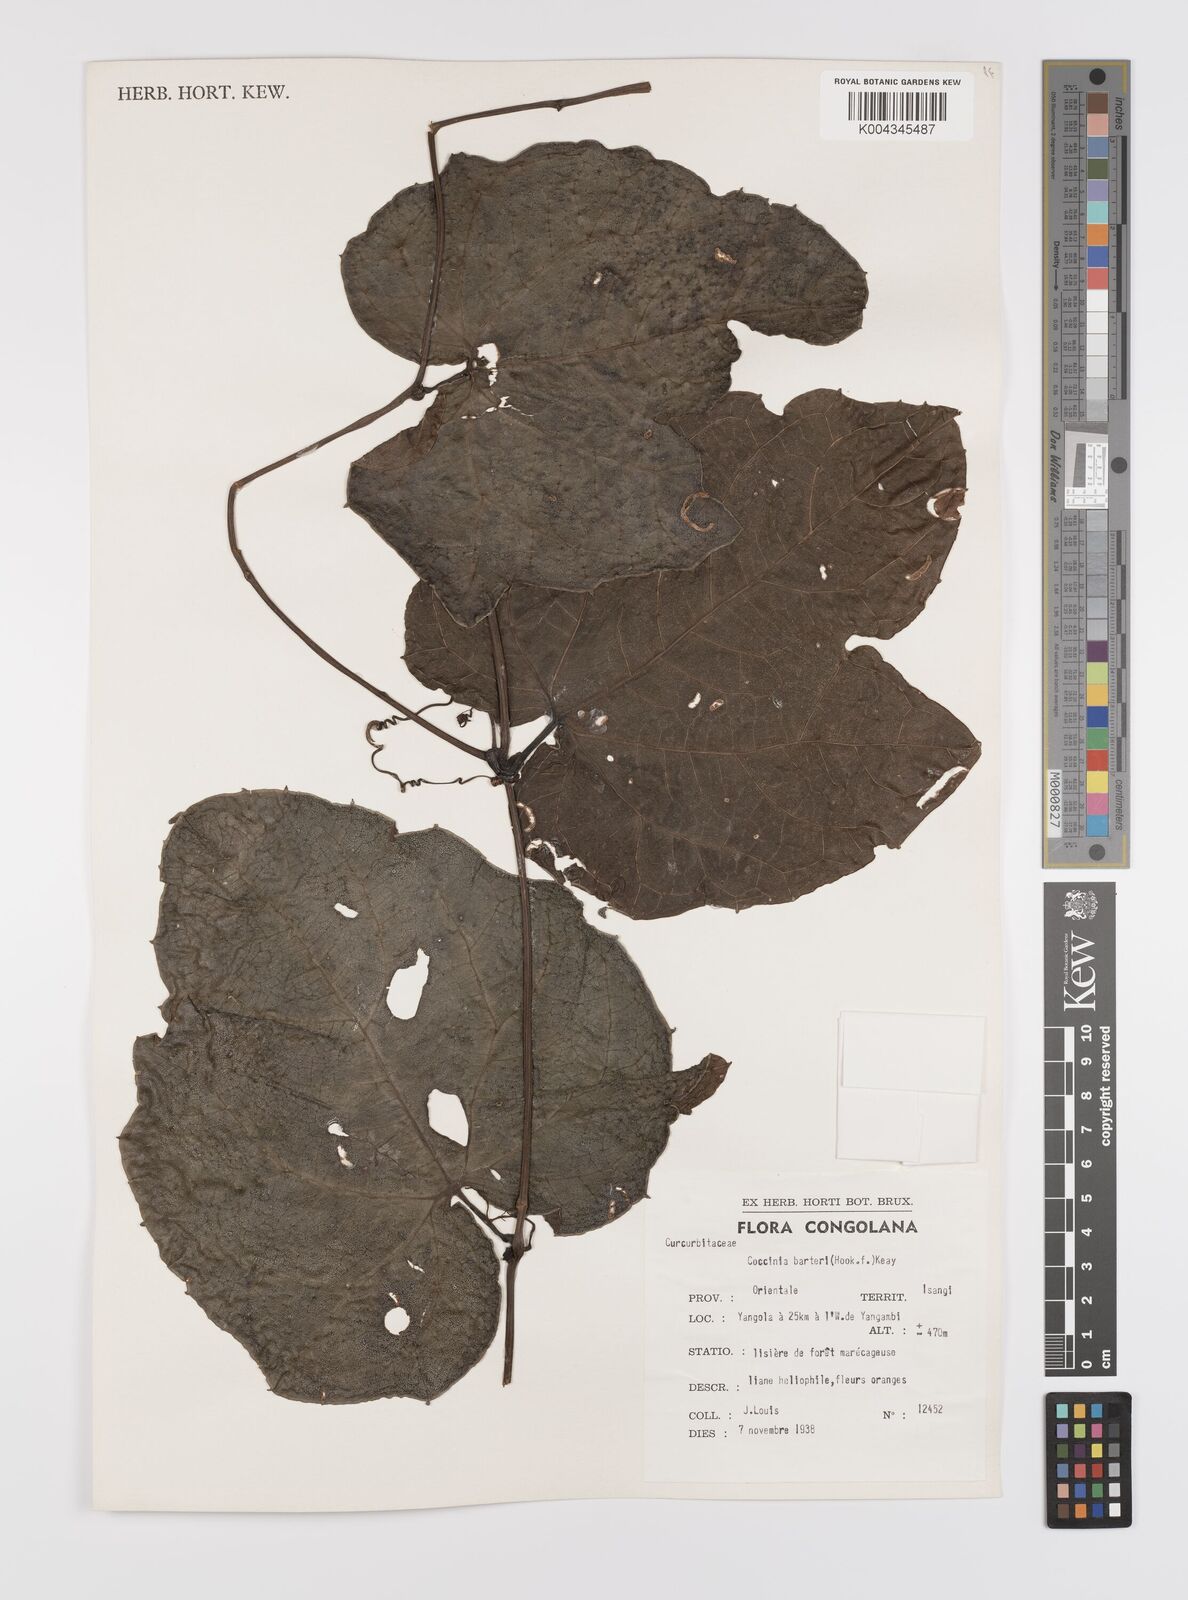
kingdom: Plantae
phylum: Tracheophyta
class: Magnoliopsida
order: Cucurbitales
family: Cucurbitaceae
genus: Coccinia
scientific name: Coccinia barteri
